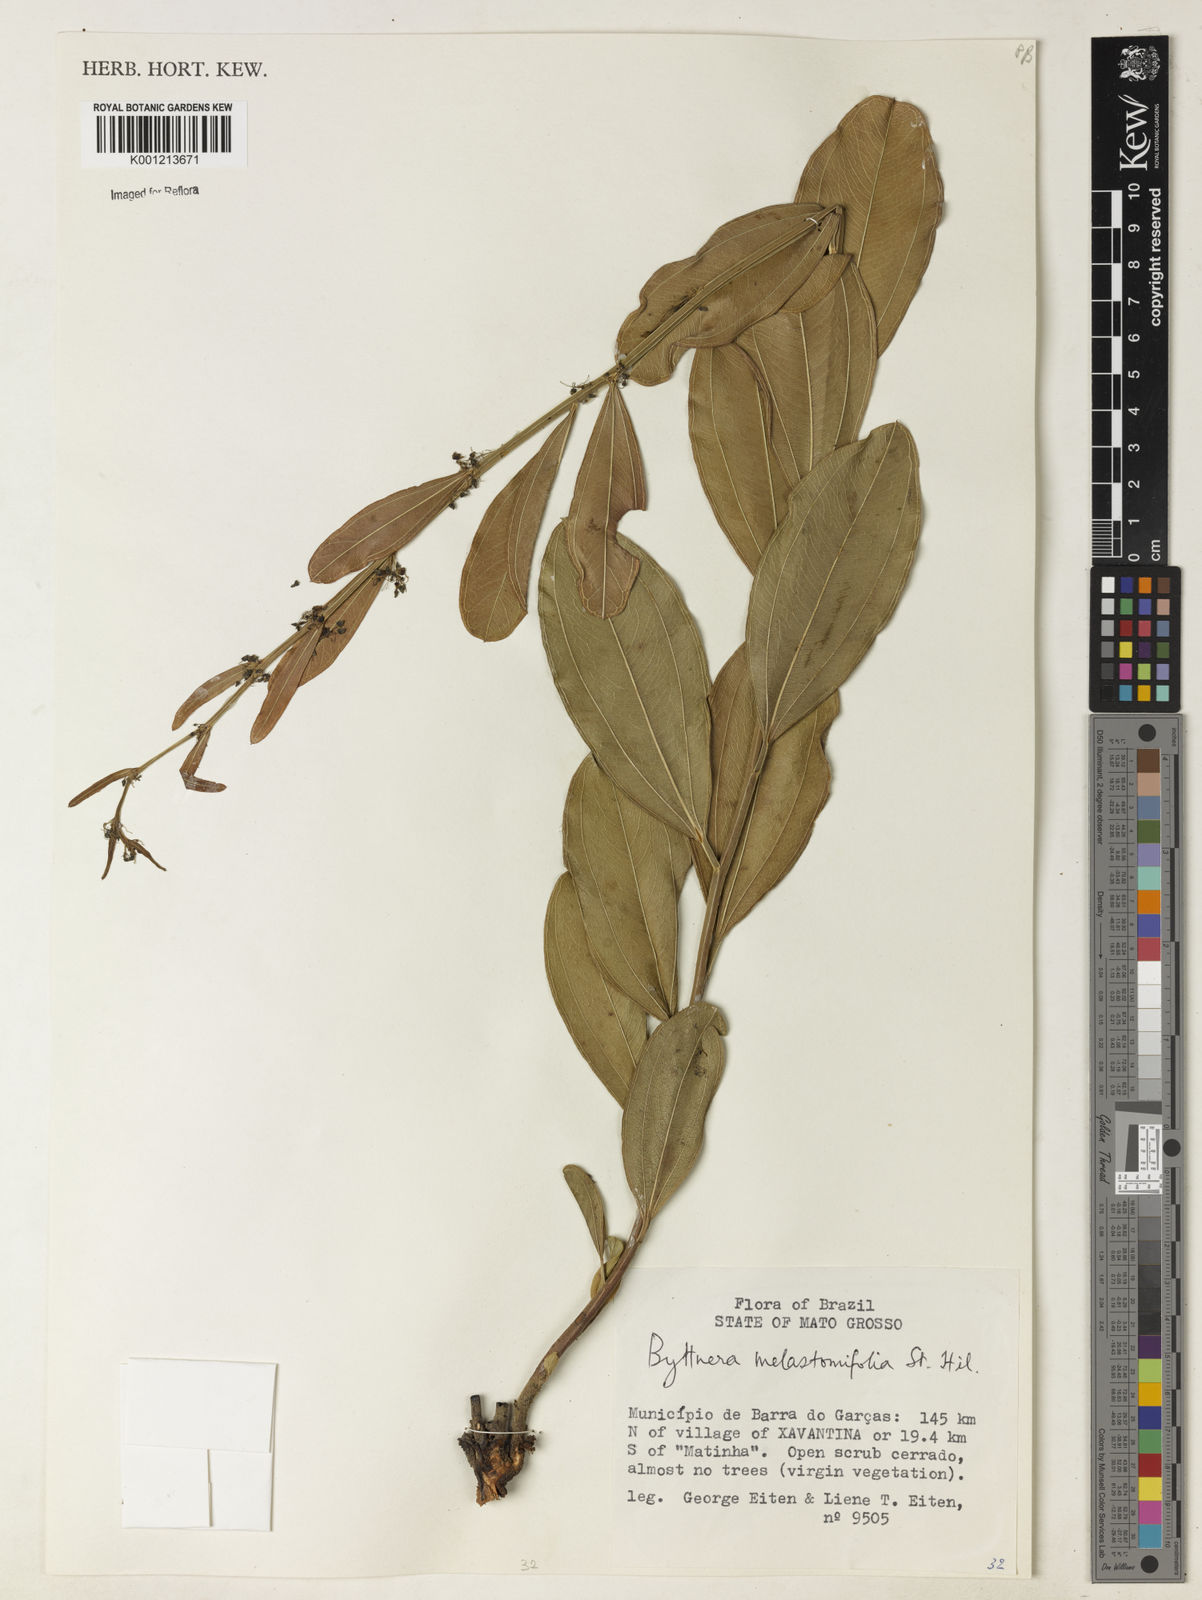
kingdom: Plantae
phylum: Tracheophyta
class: Magnoliopsida
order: Malvales
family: Malvaceae
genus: Byttneria
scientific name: Byttneria melastomifolia
